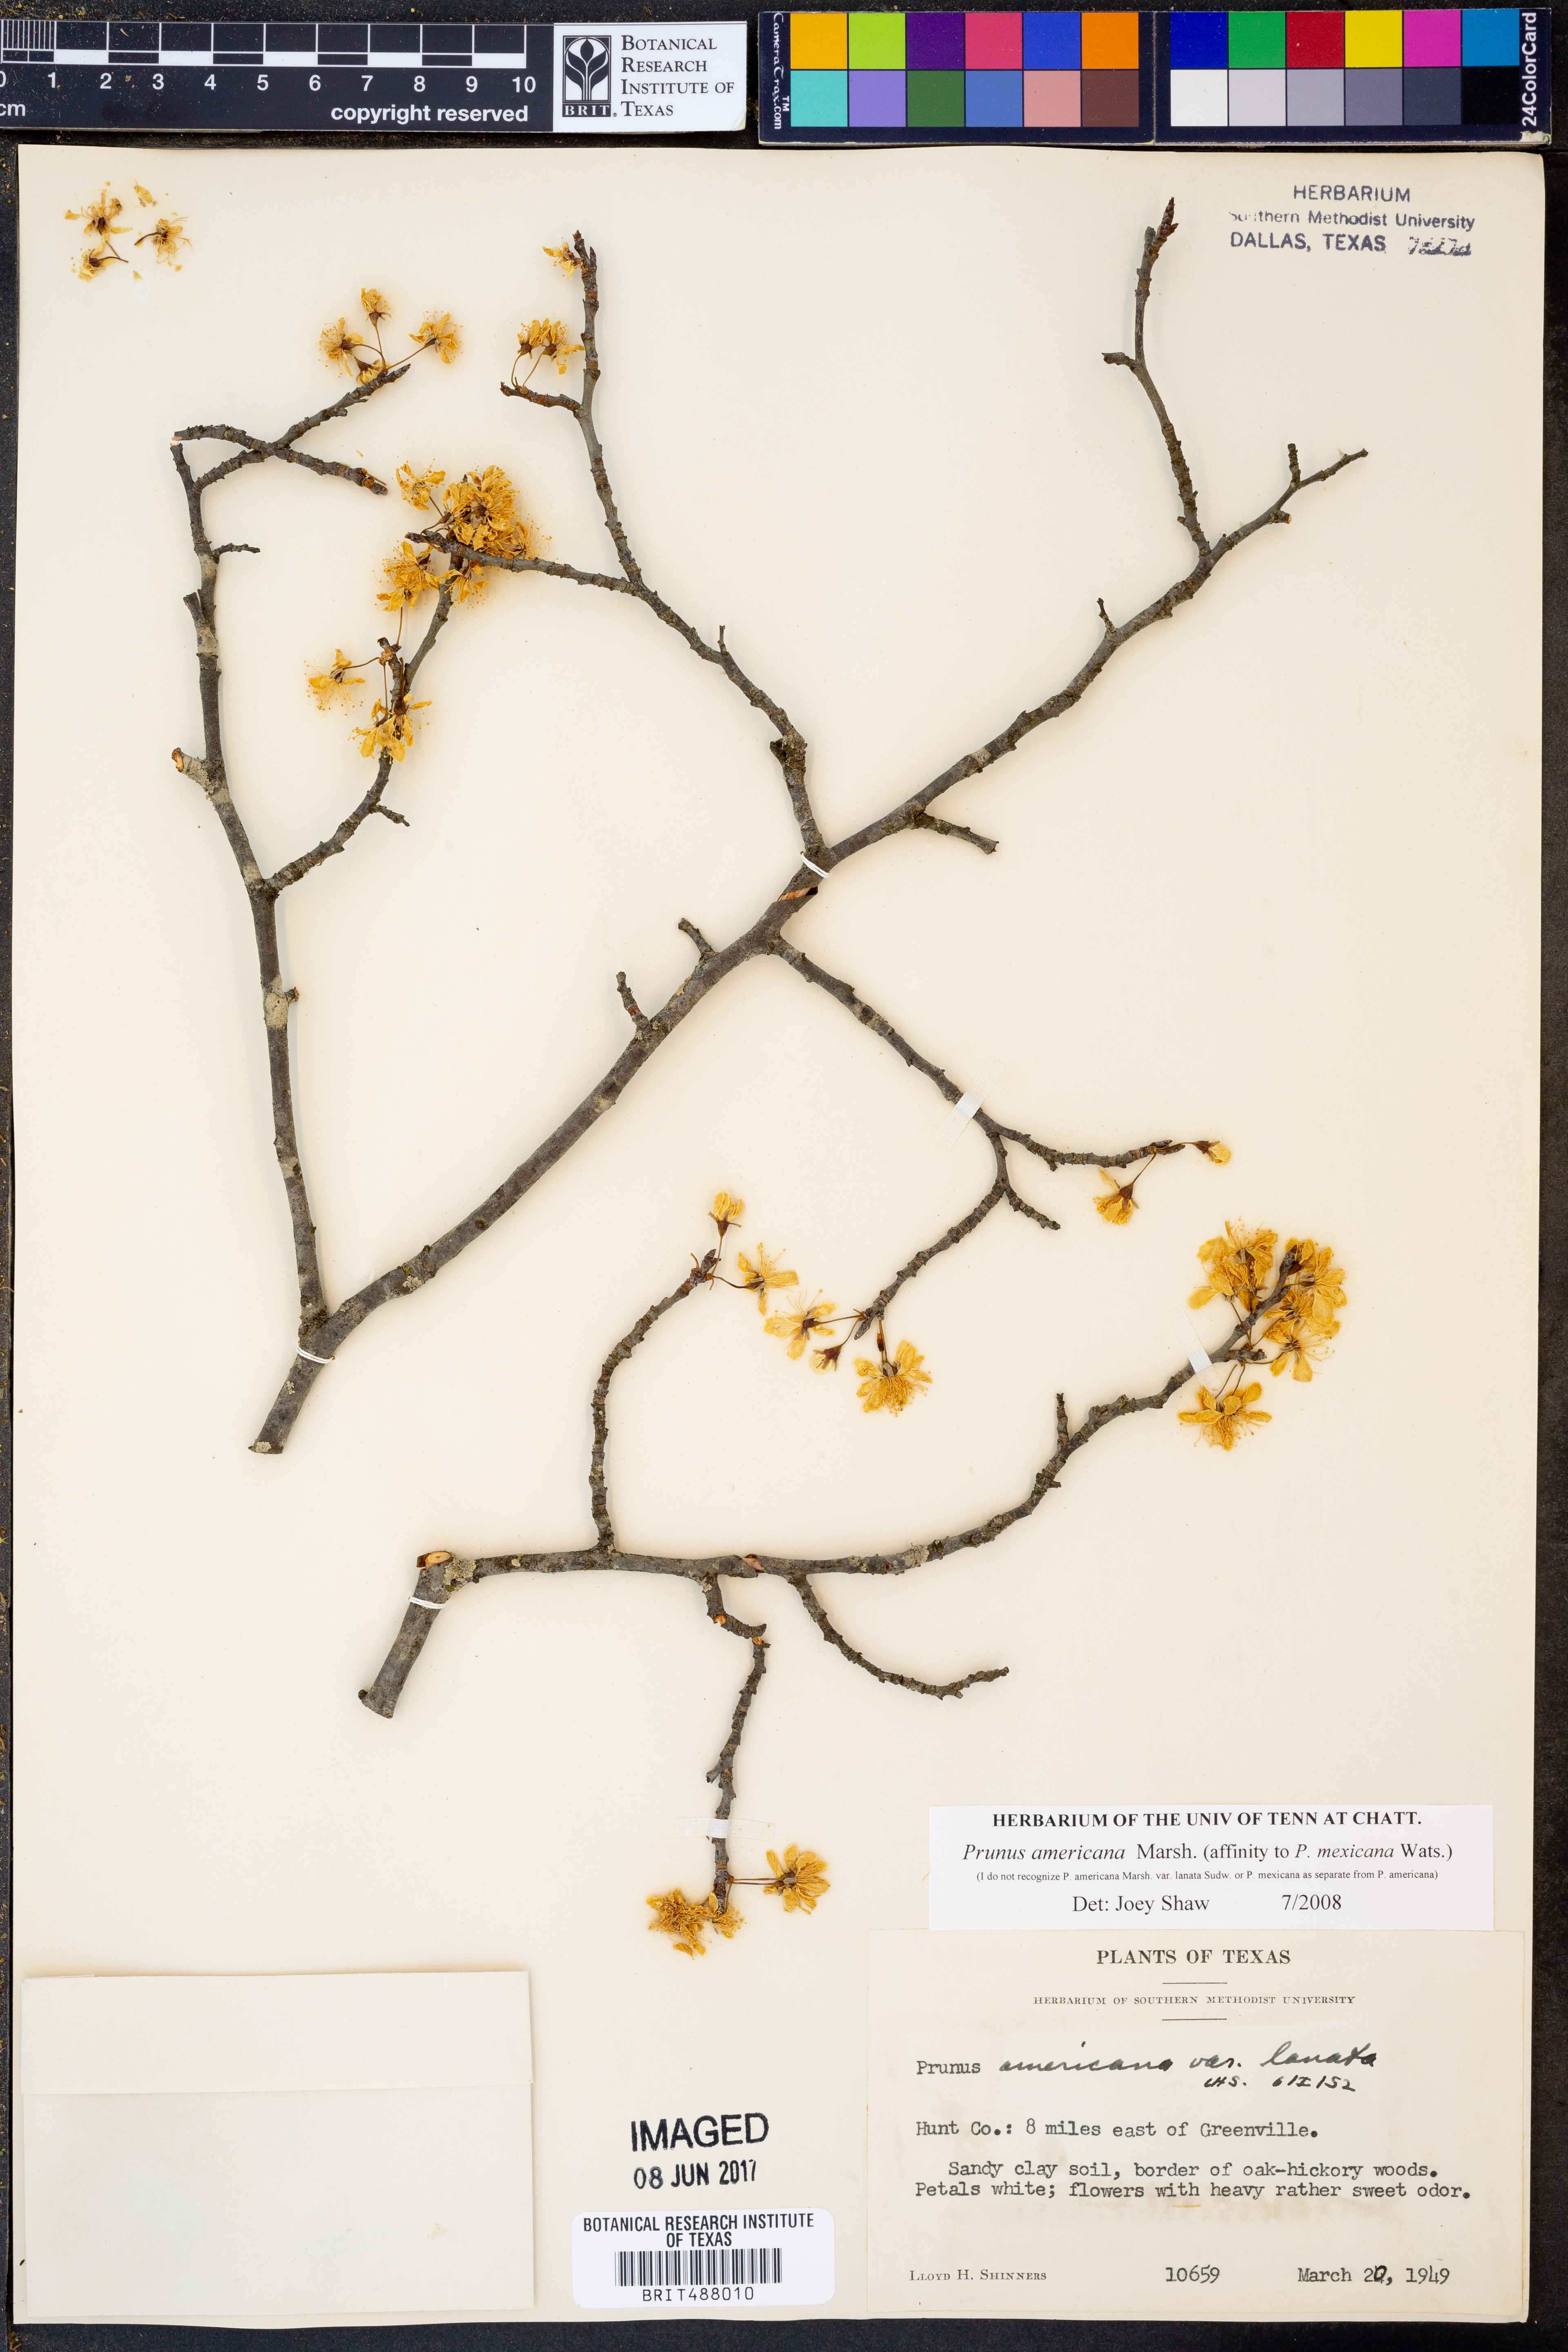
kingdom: Plantae
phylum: Tracheophyta
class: Magnoliopsida
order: Rosales
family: Rosaceae
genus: Prunus
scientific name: Prunus americana
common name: American plum
